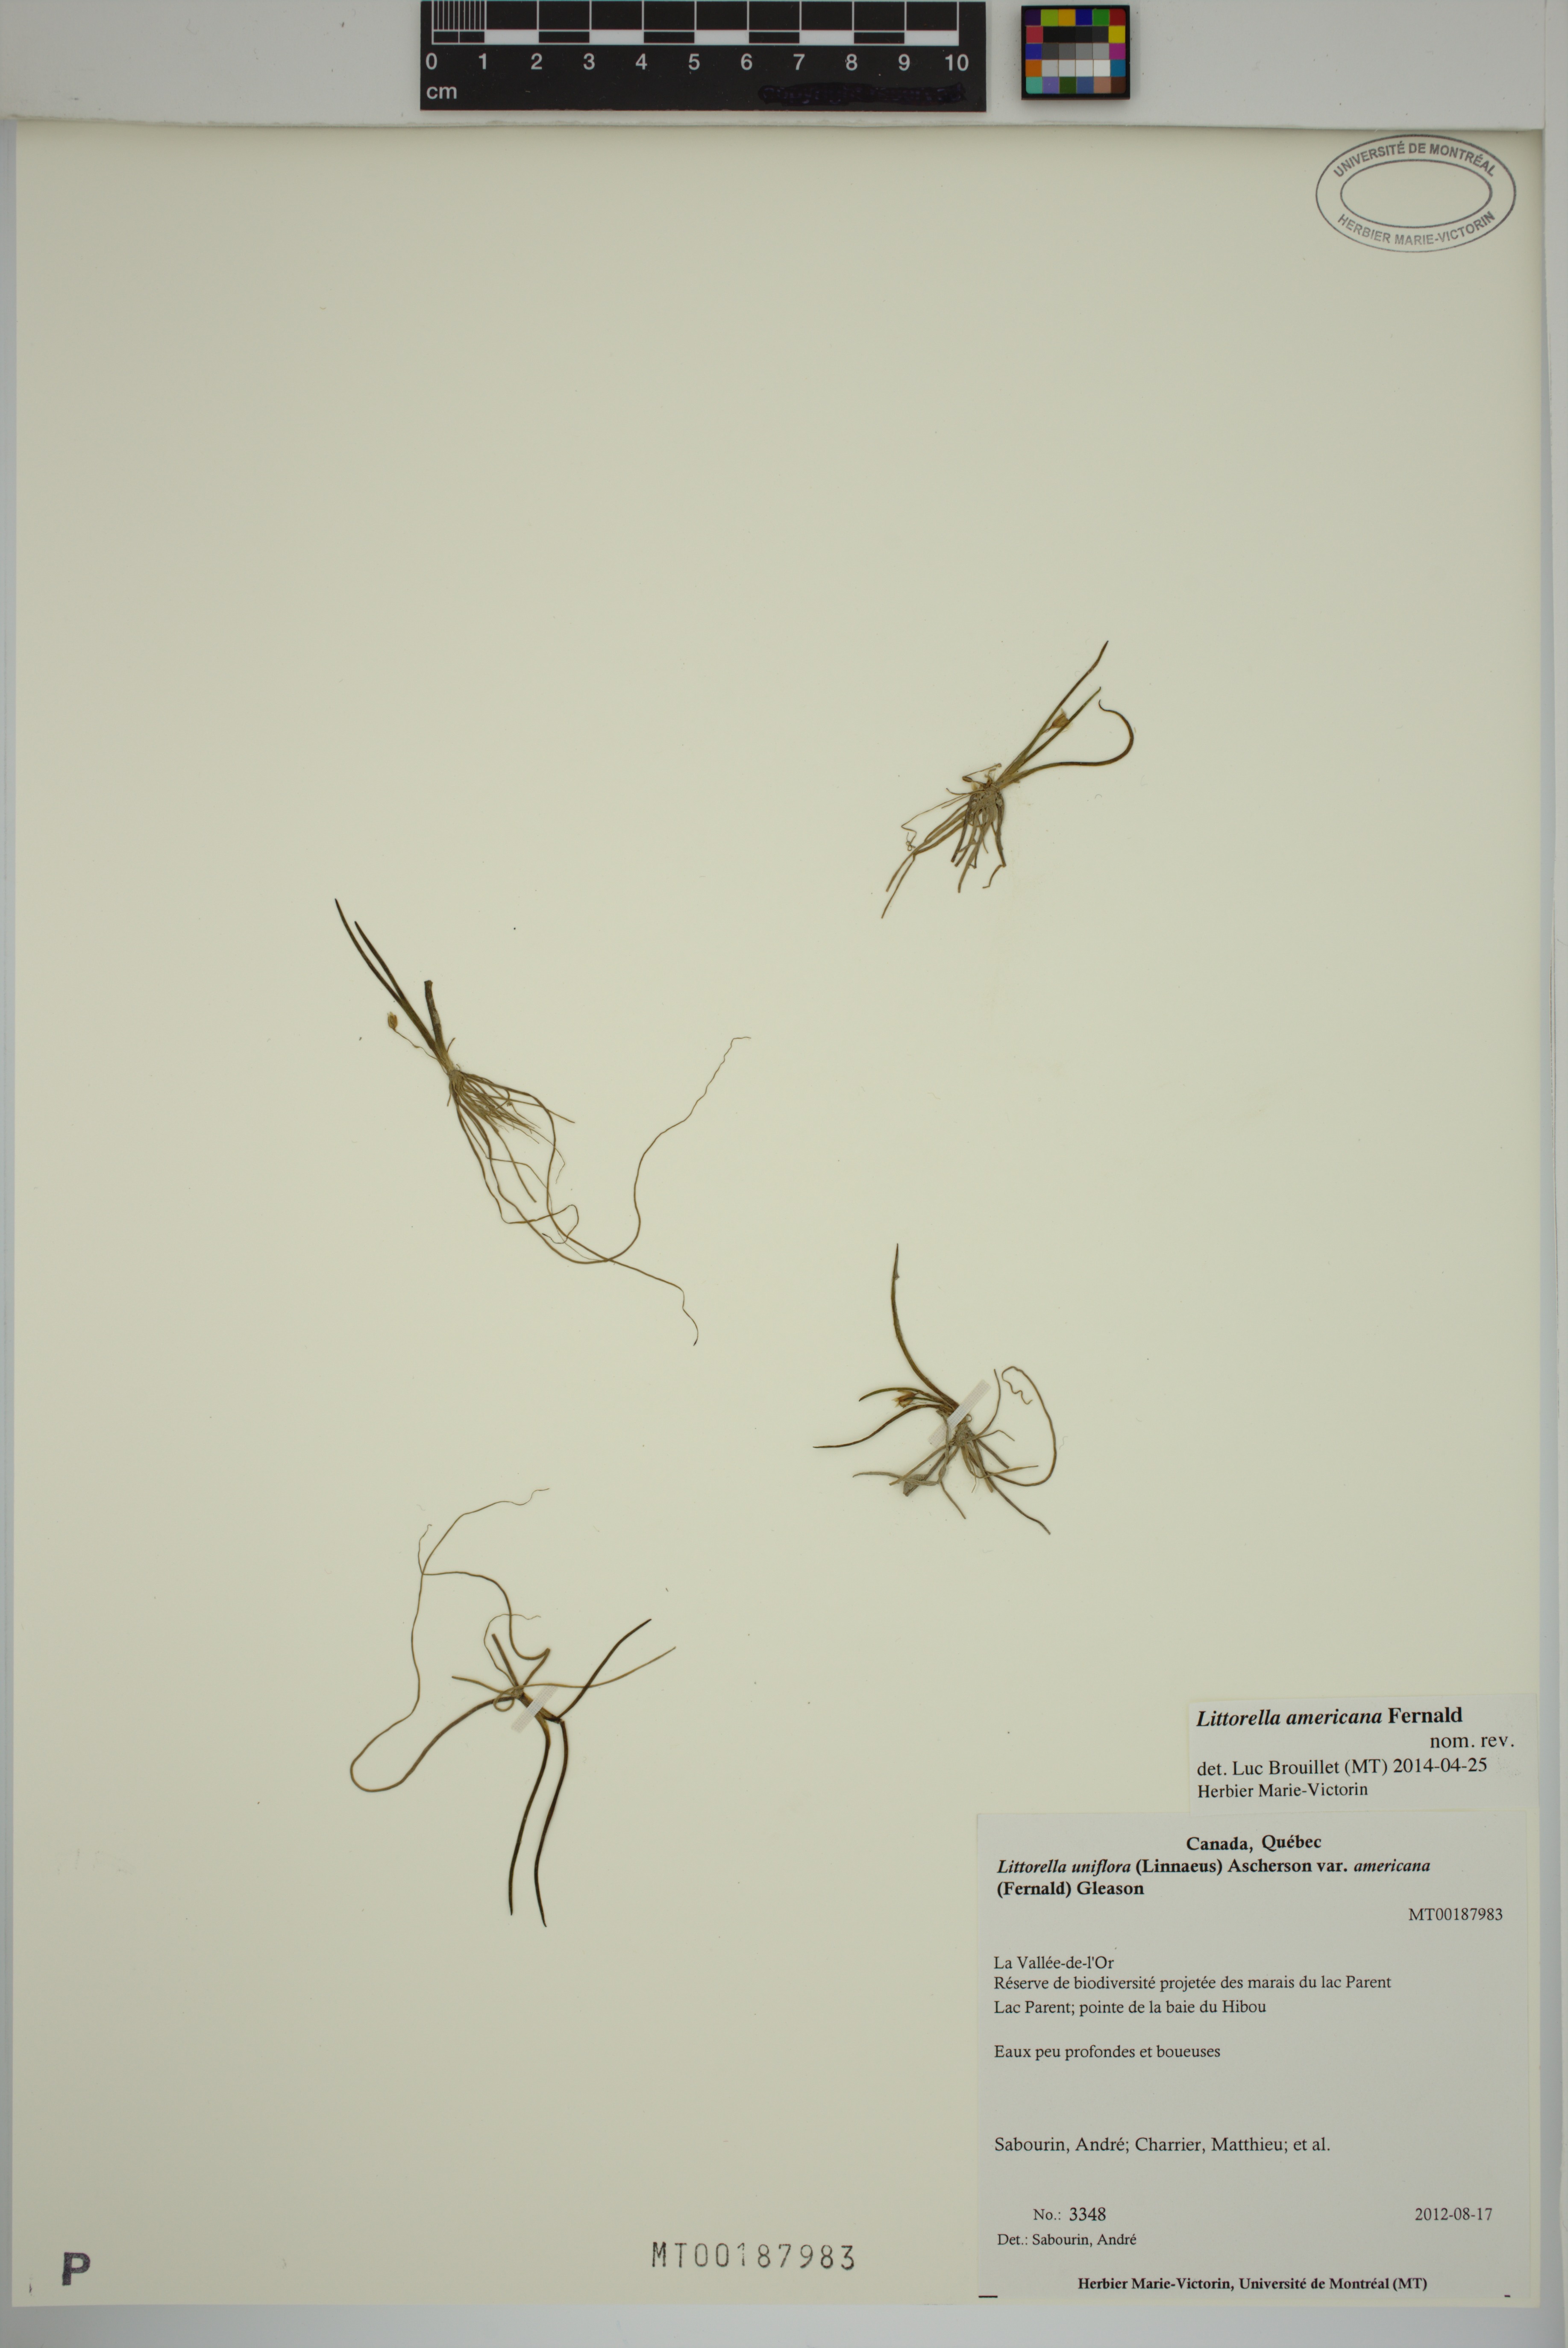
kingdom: Plantae
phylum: Tracheophyta
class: Magnoliopsida
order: Lamiales
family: Plantaginaceae
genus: Littorella
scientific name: Littorella americana
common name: American littorella
